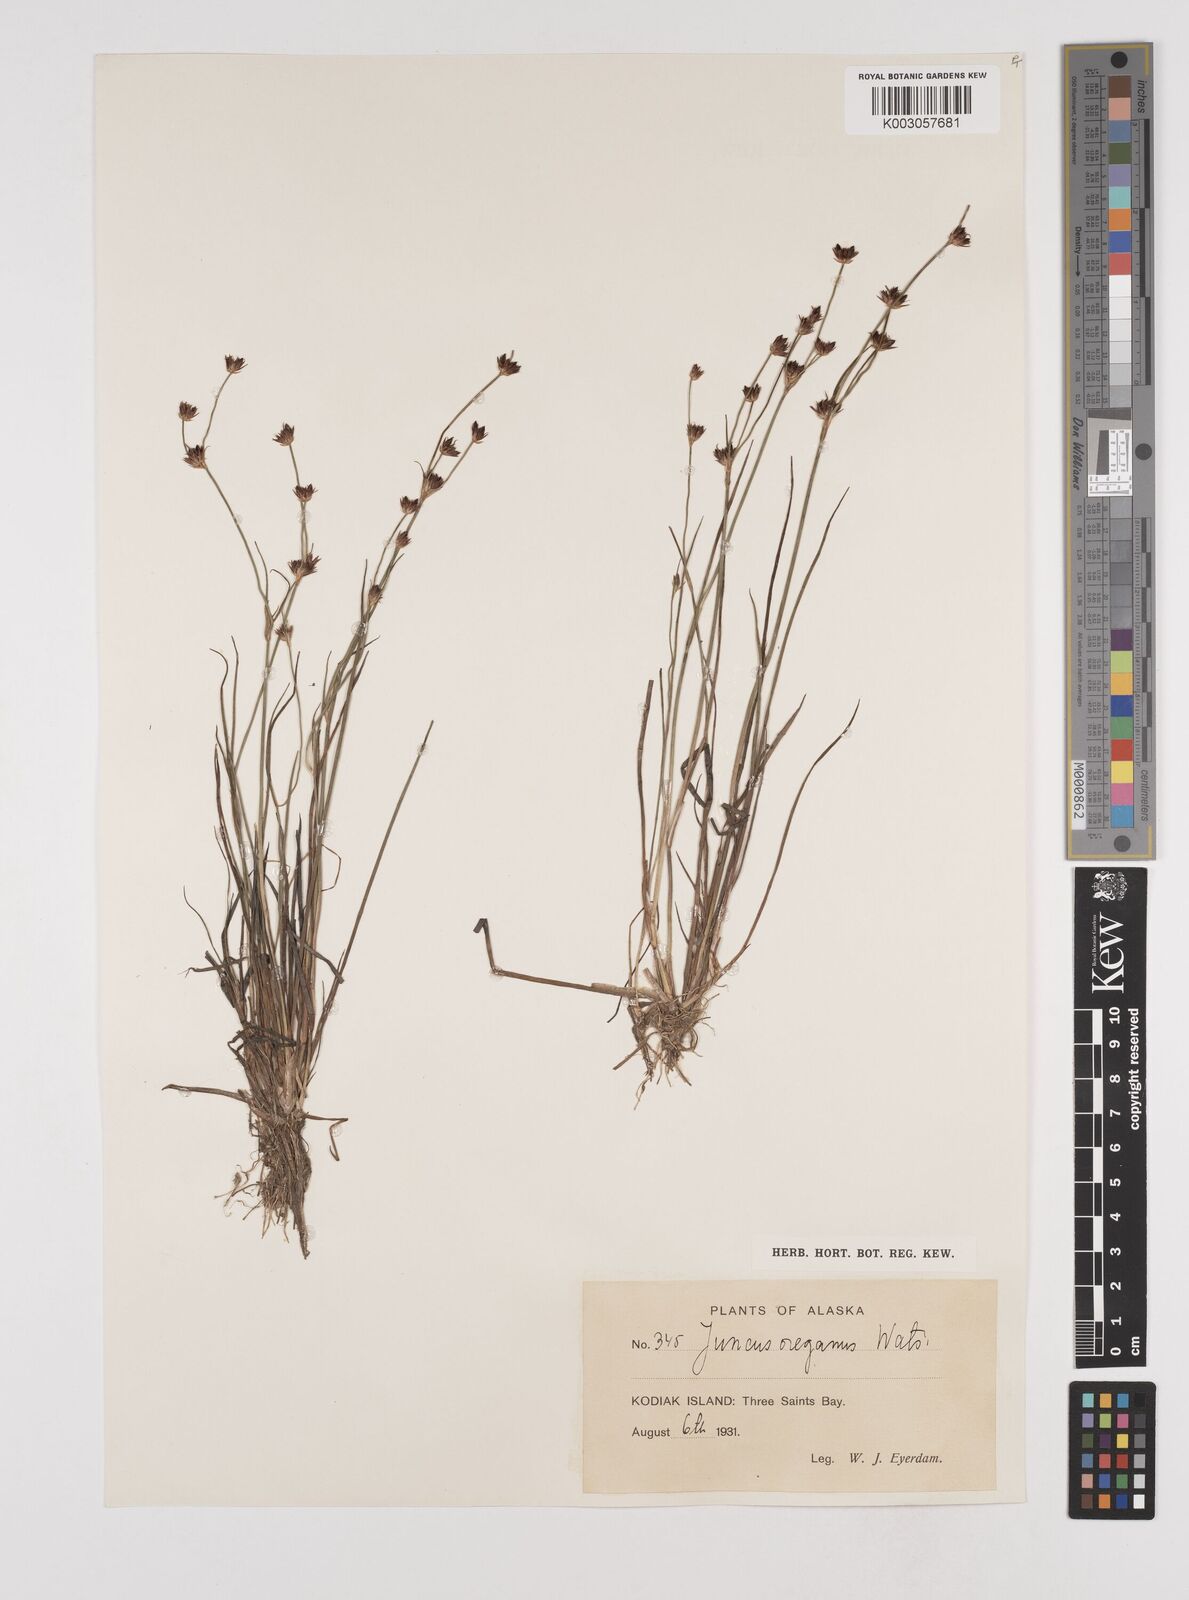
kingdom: Plantae
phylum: Tracheophyta
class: Liliopsida
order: Poales
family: Juncaceae
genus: Juncus
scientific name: Juncus supiniformis
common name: Hairy-leaved rush
